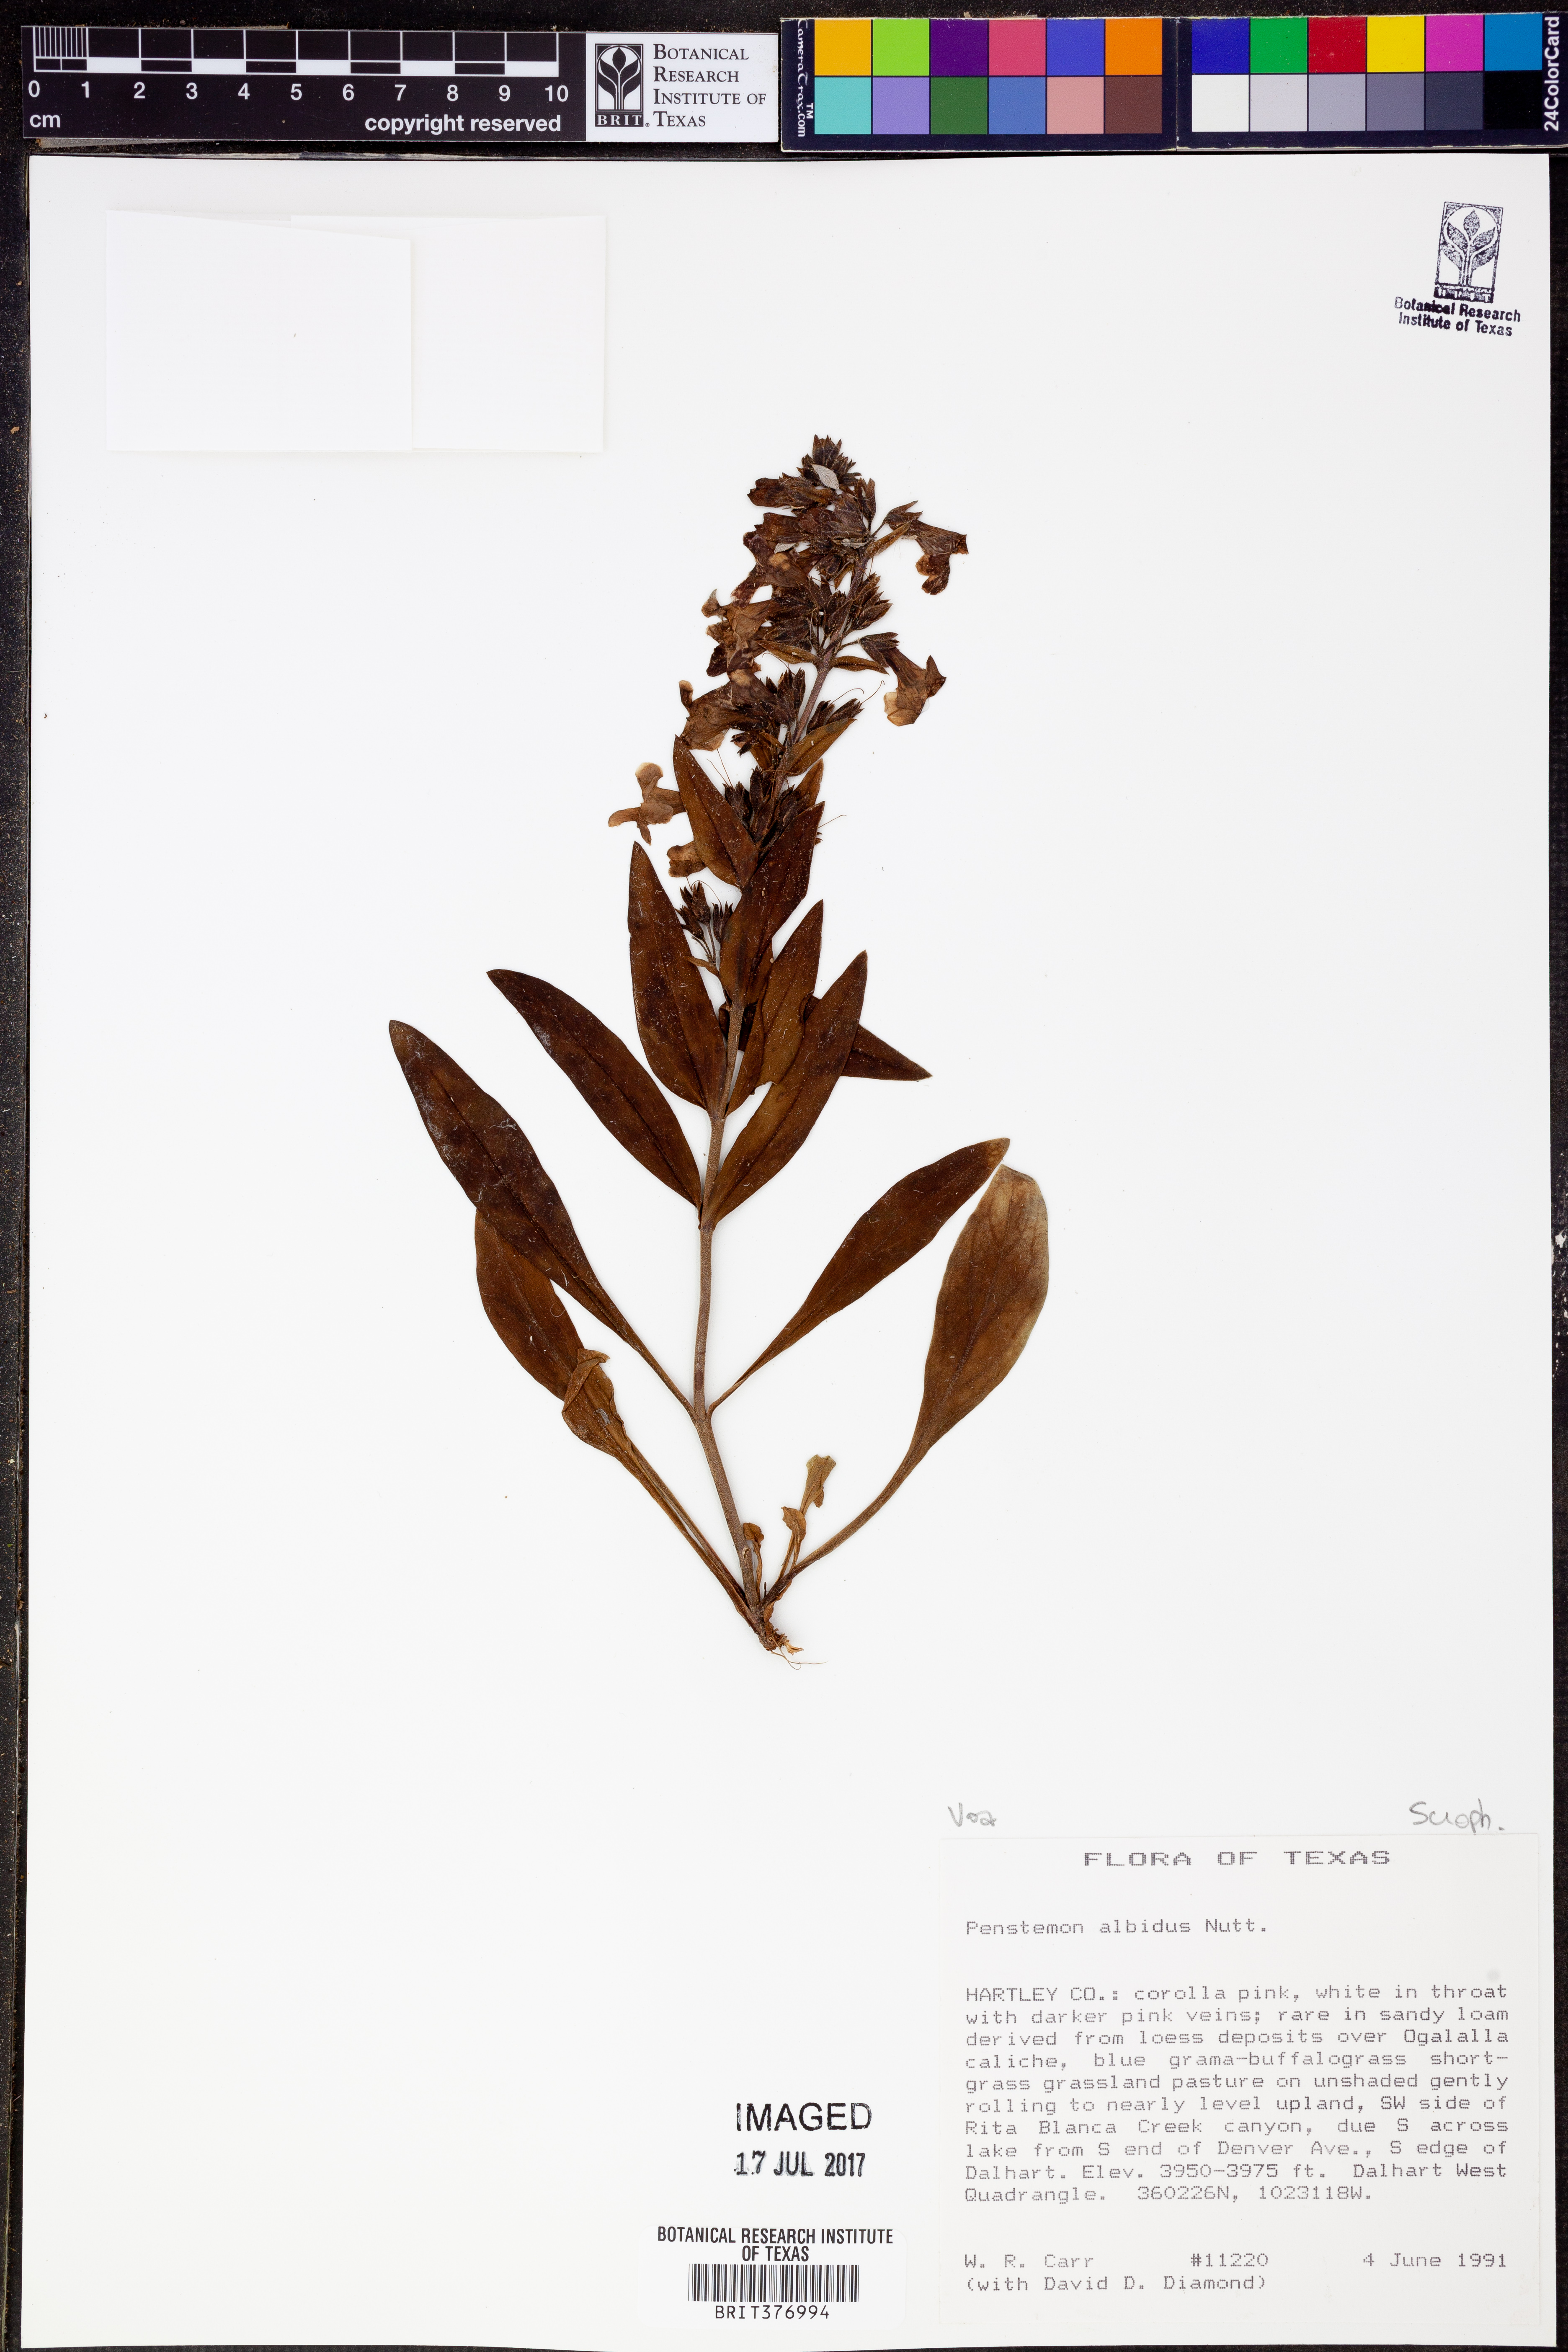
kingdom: Plantae
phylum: Tracheophyta
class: Magnoliopsida
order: Lamiales
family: Plantaginaceae
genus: Penstemon
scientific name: Penstemon albidus
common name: White beardtongue
